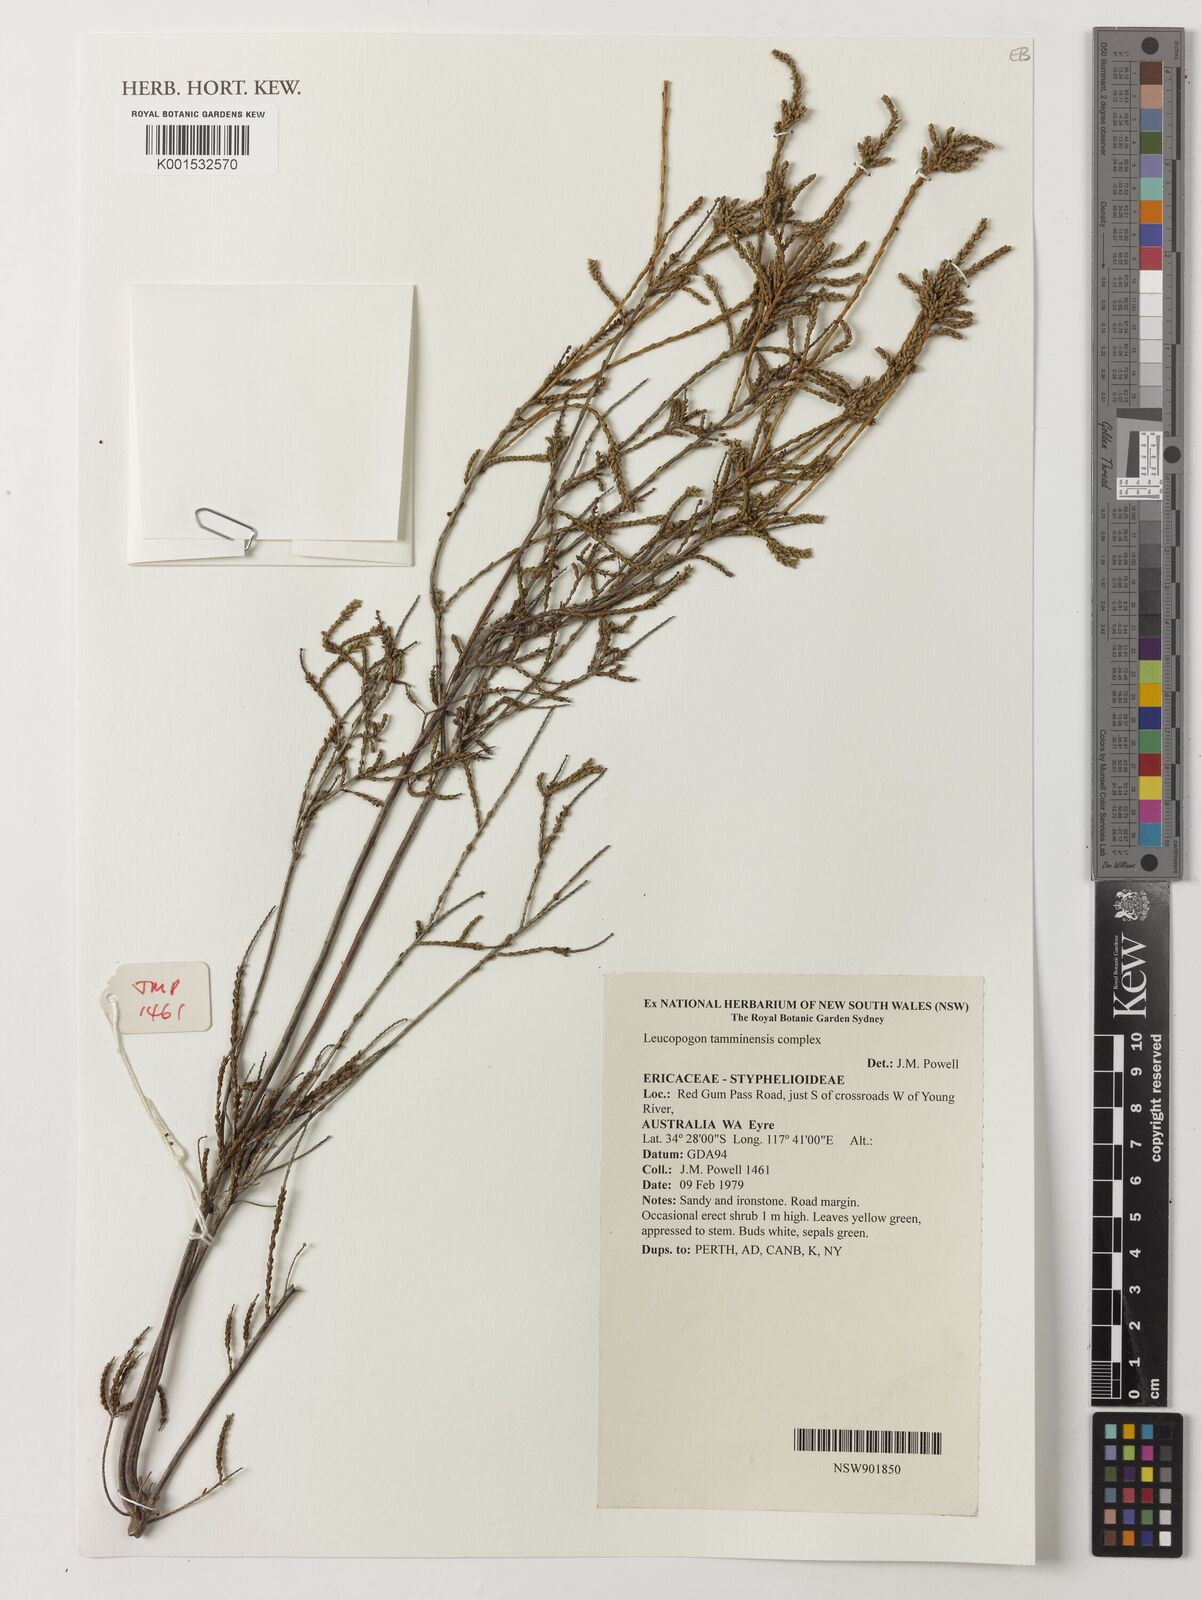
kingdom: Plantae
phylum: Tracheophyta
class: Magnoliopsida
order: Ericales
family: Ericaceae
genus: Styphelia
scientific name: Styphelia tamminensis
